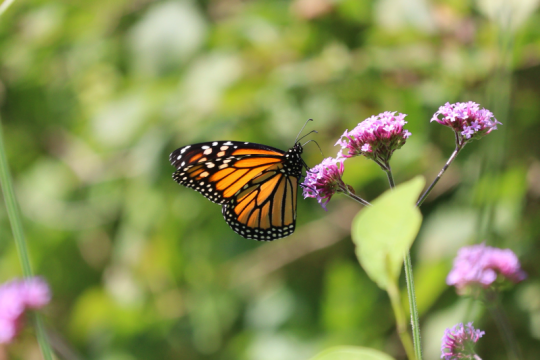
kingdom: Animalia
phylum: Arthropoda
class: Insecta
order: Lepidoptera
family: Nymphalidae
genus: Danaus
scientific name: Danaus plexippus
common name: Monarch
